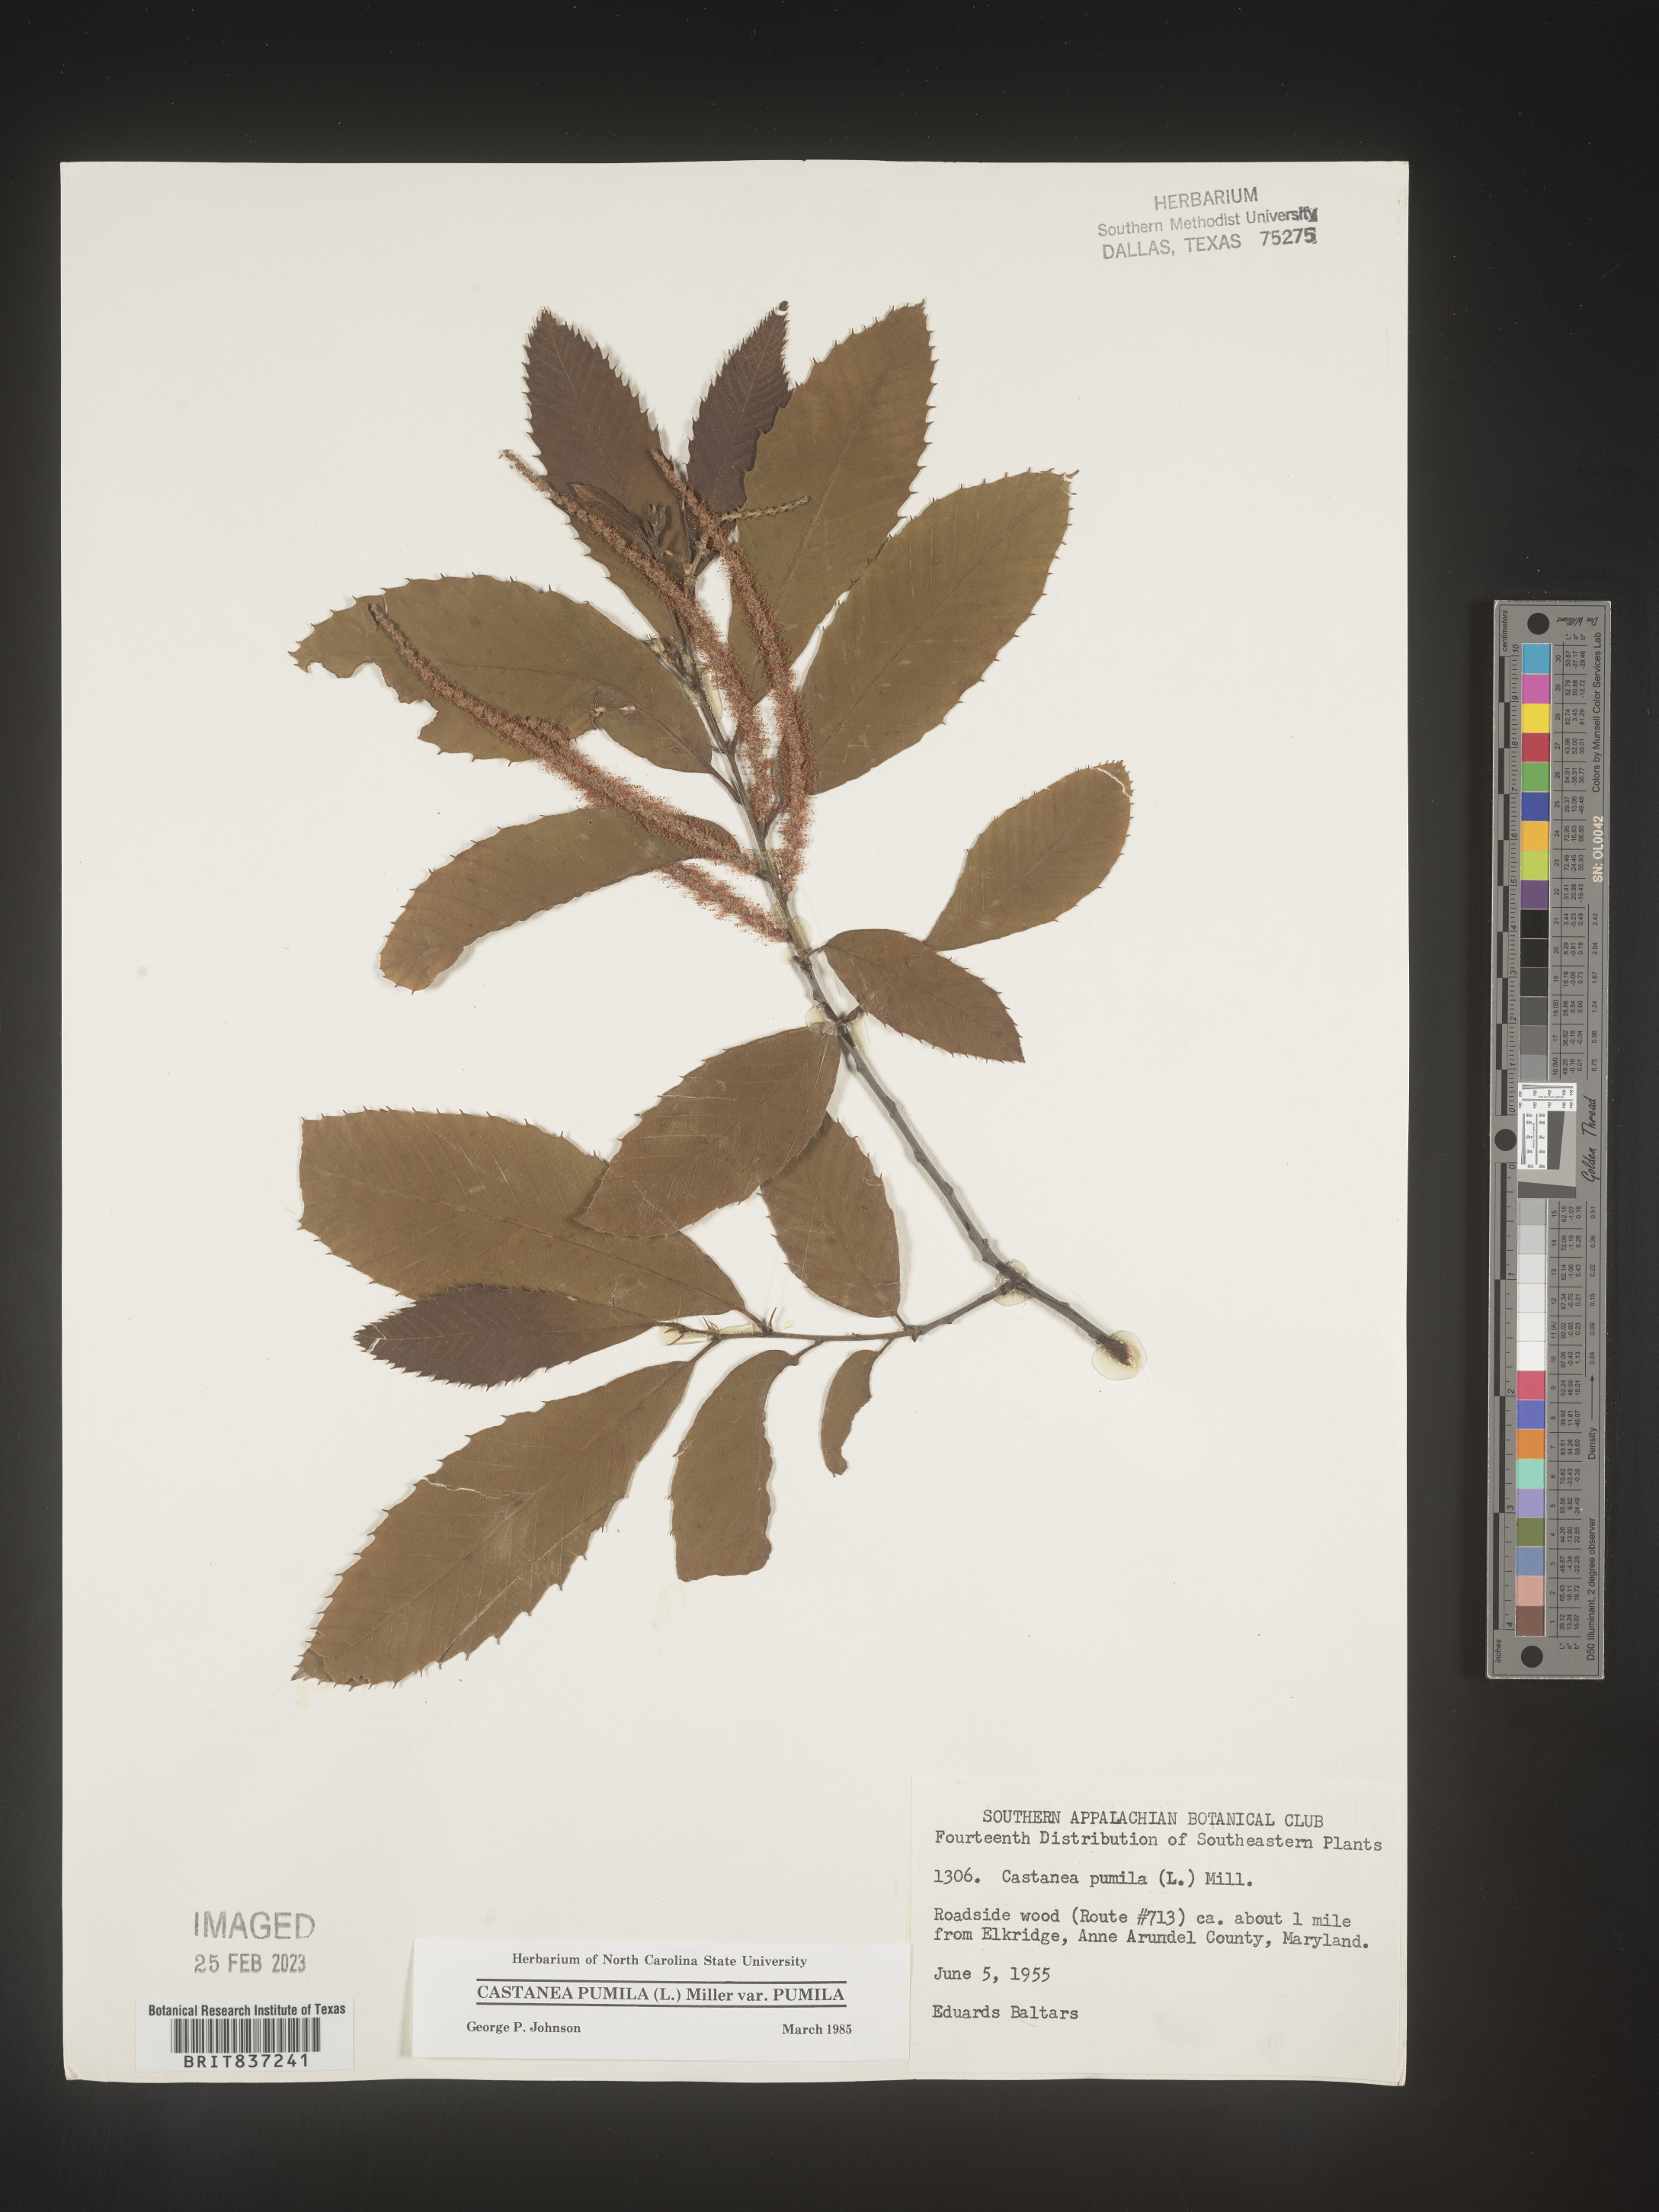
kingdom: Plantae
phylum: Tracheophyta
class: Magnoliopsida
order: Fagales
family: Fagaceae
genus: Castanea
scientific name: Castanea pumila
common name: Chinkapin
